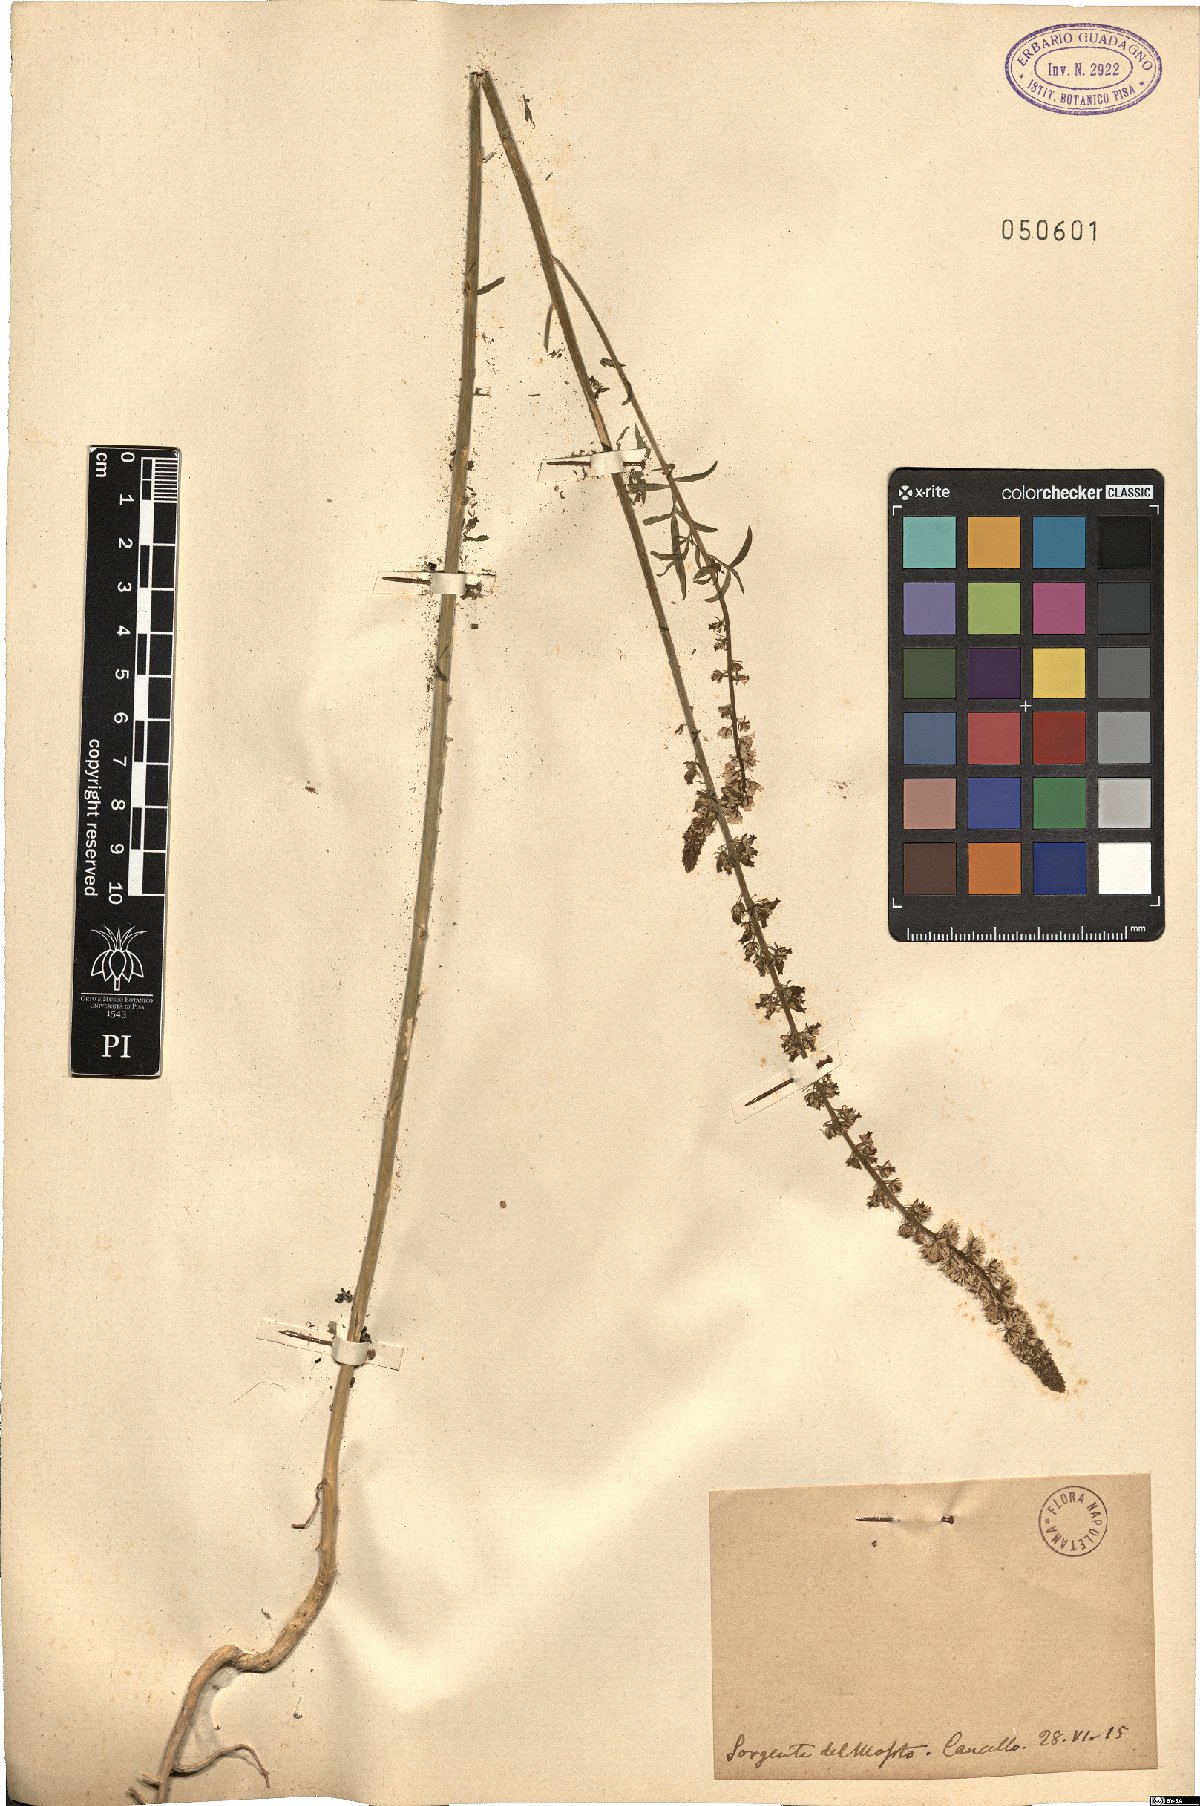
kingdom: Plantae
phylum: Tracheophyta
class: Magnoliopsida
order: Brassicales
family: Resedaceae
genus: Reseda
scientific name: Reseda
